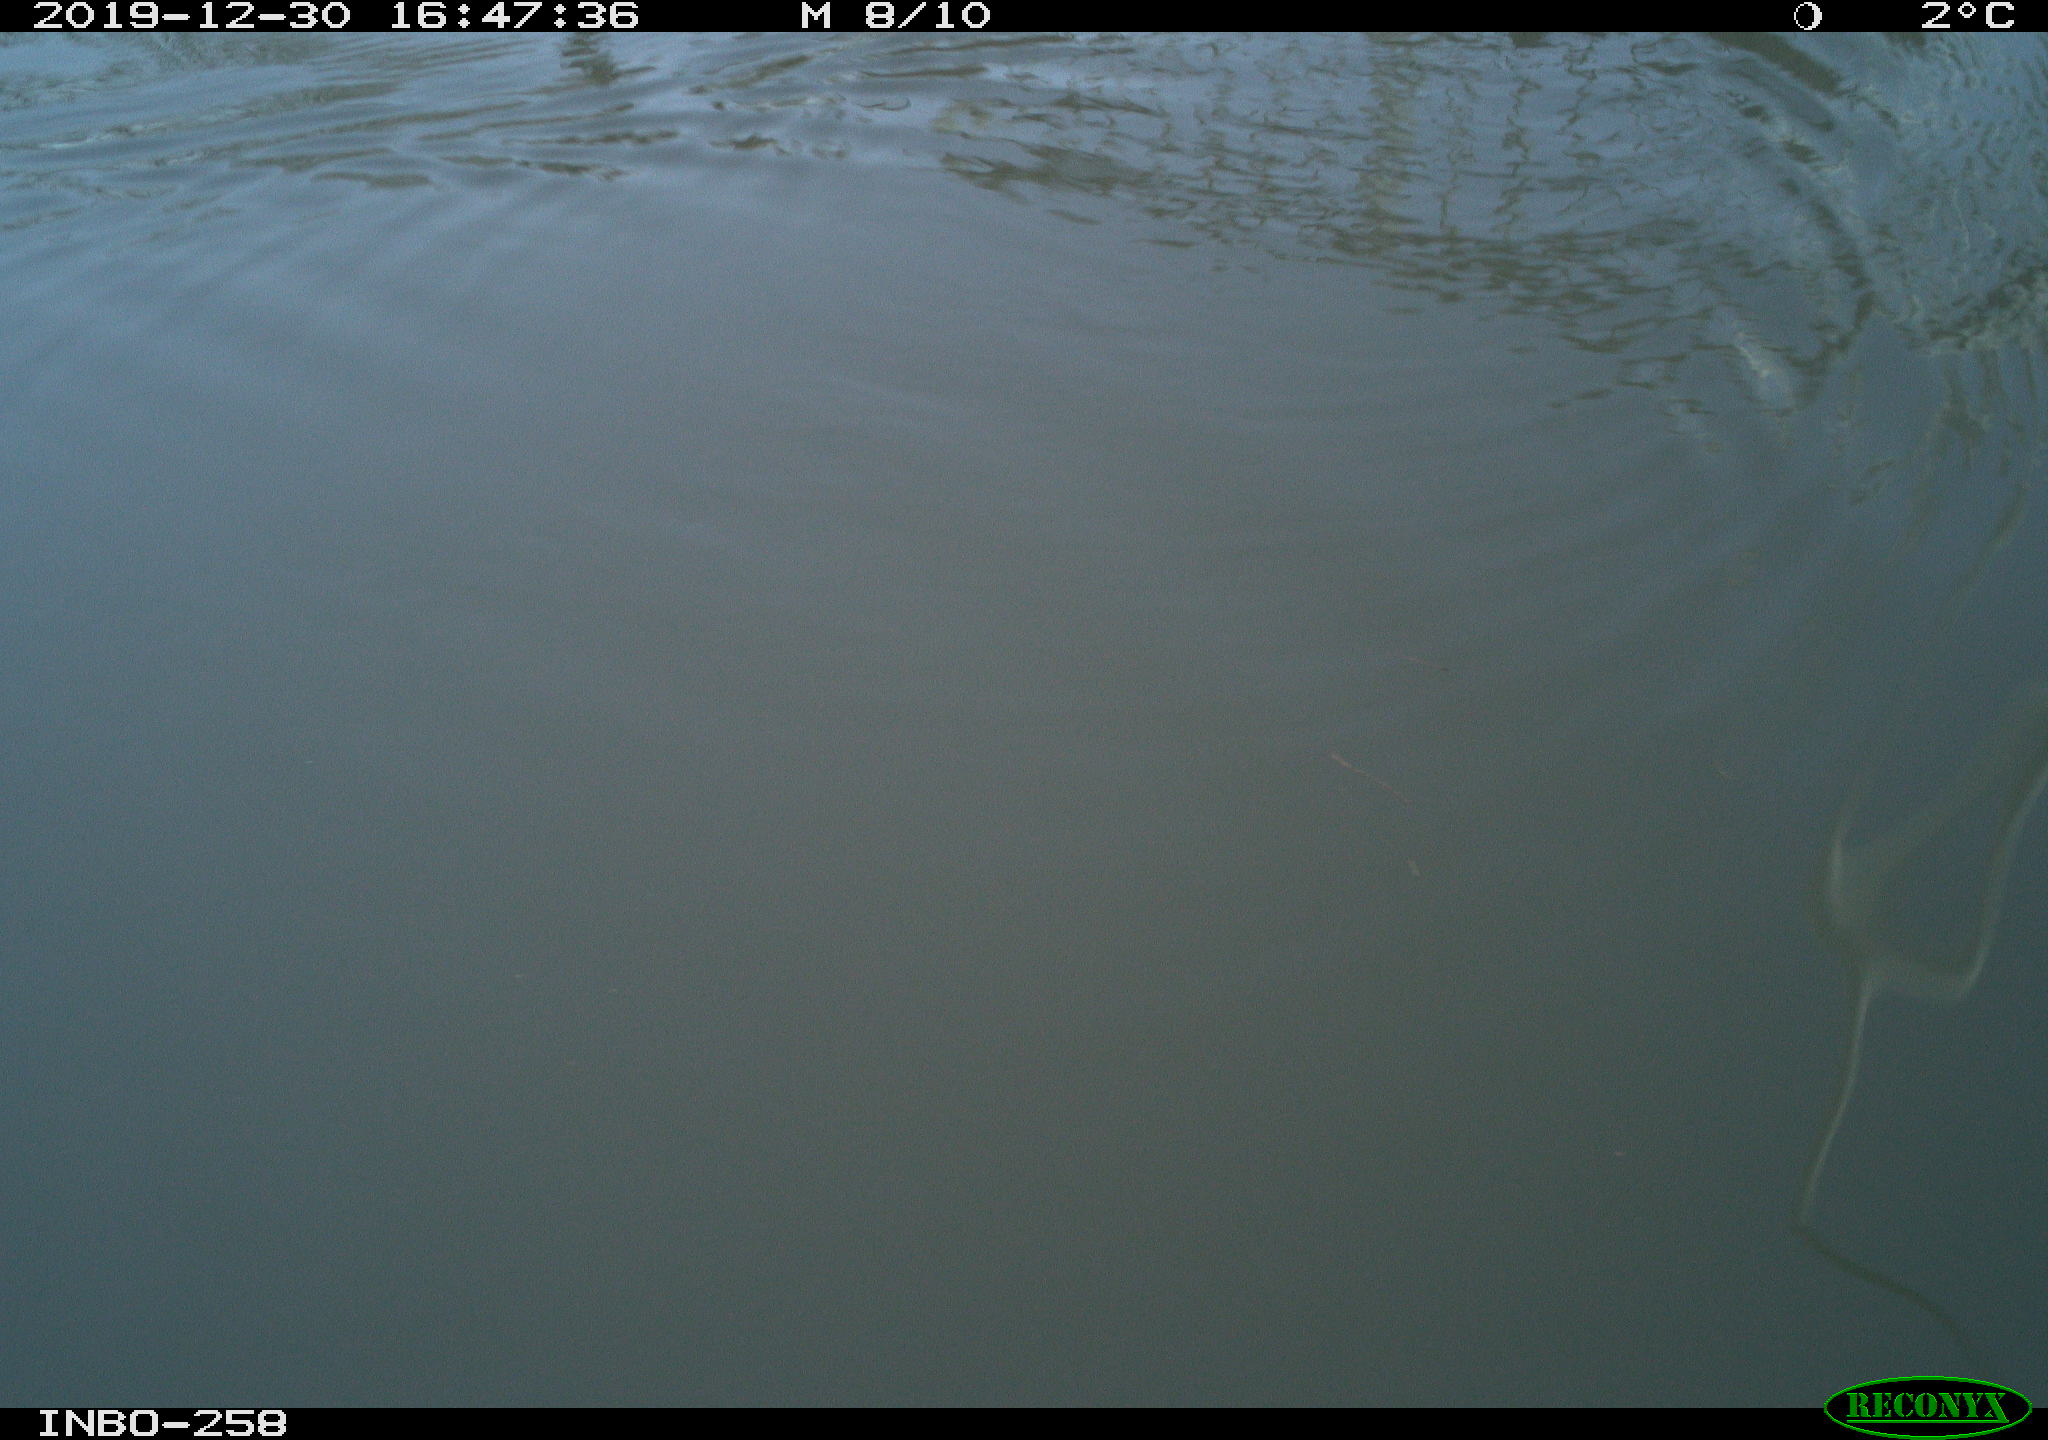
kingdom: Animalia
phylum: Chordata
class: Aves
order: Gruiformes
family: Rallidae
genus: Gallinula
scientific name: Gallinula chloropus
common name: Common moorhen
